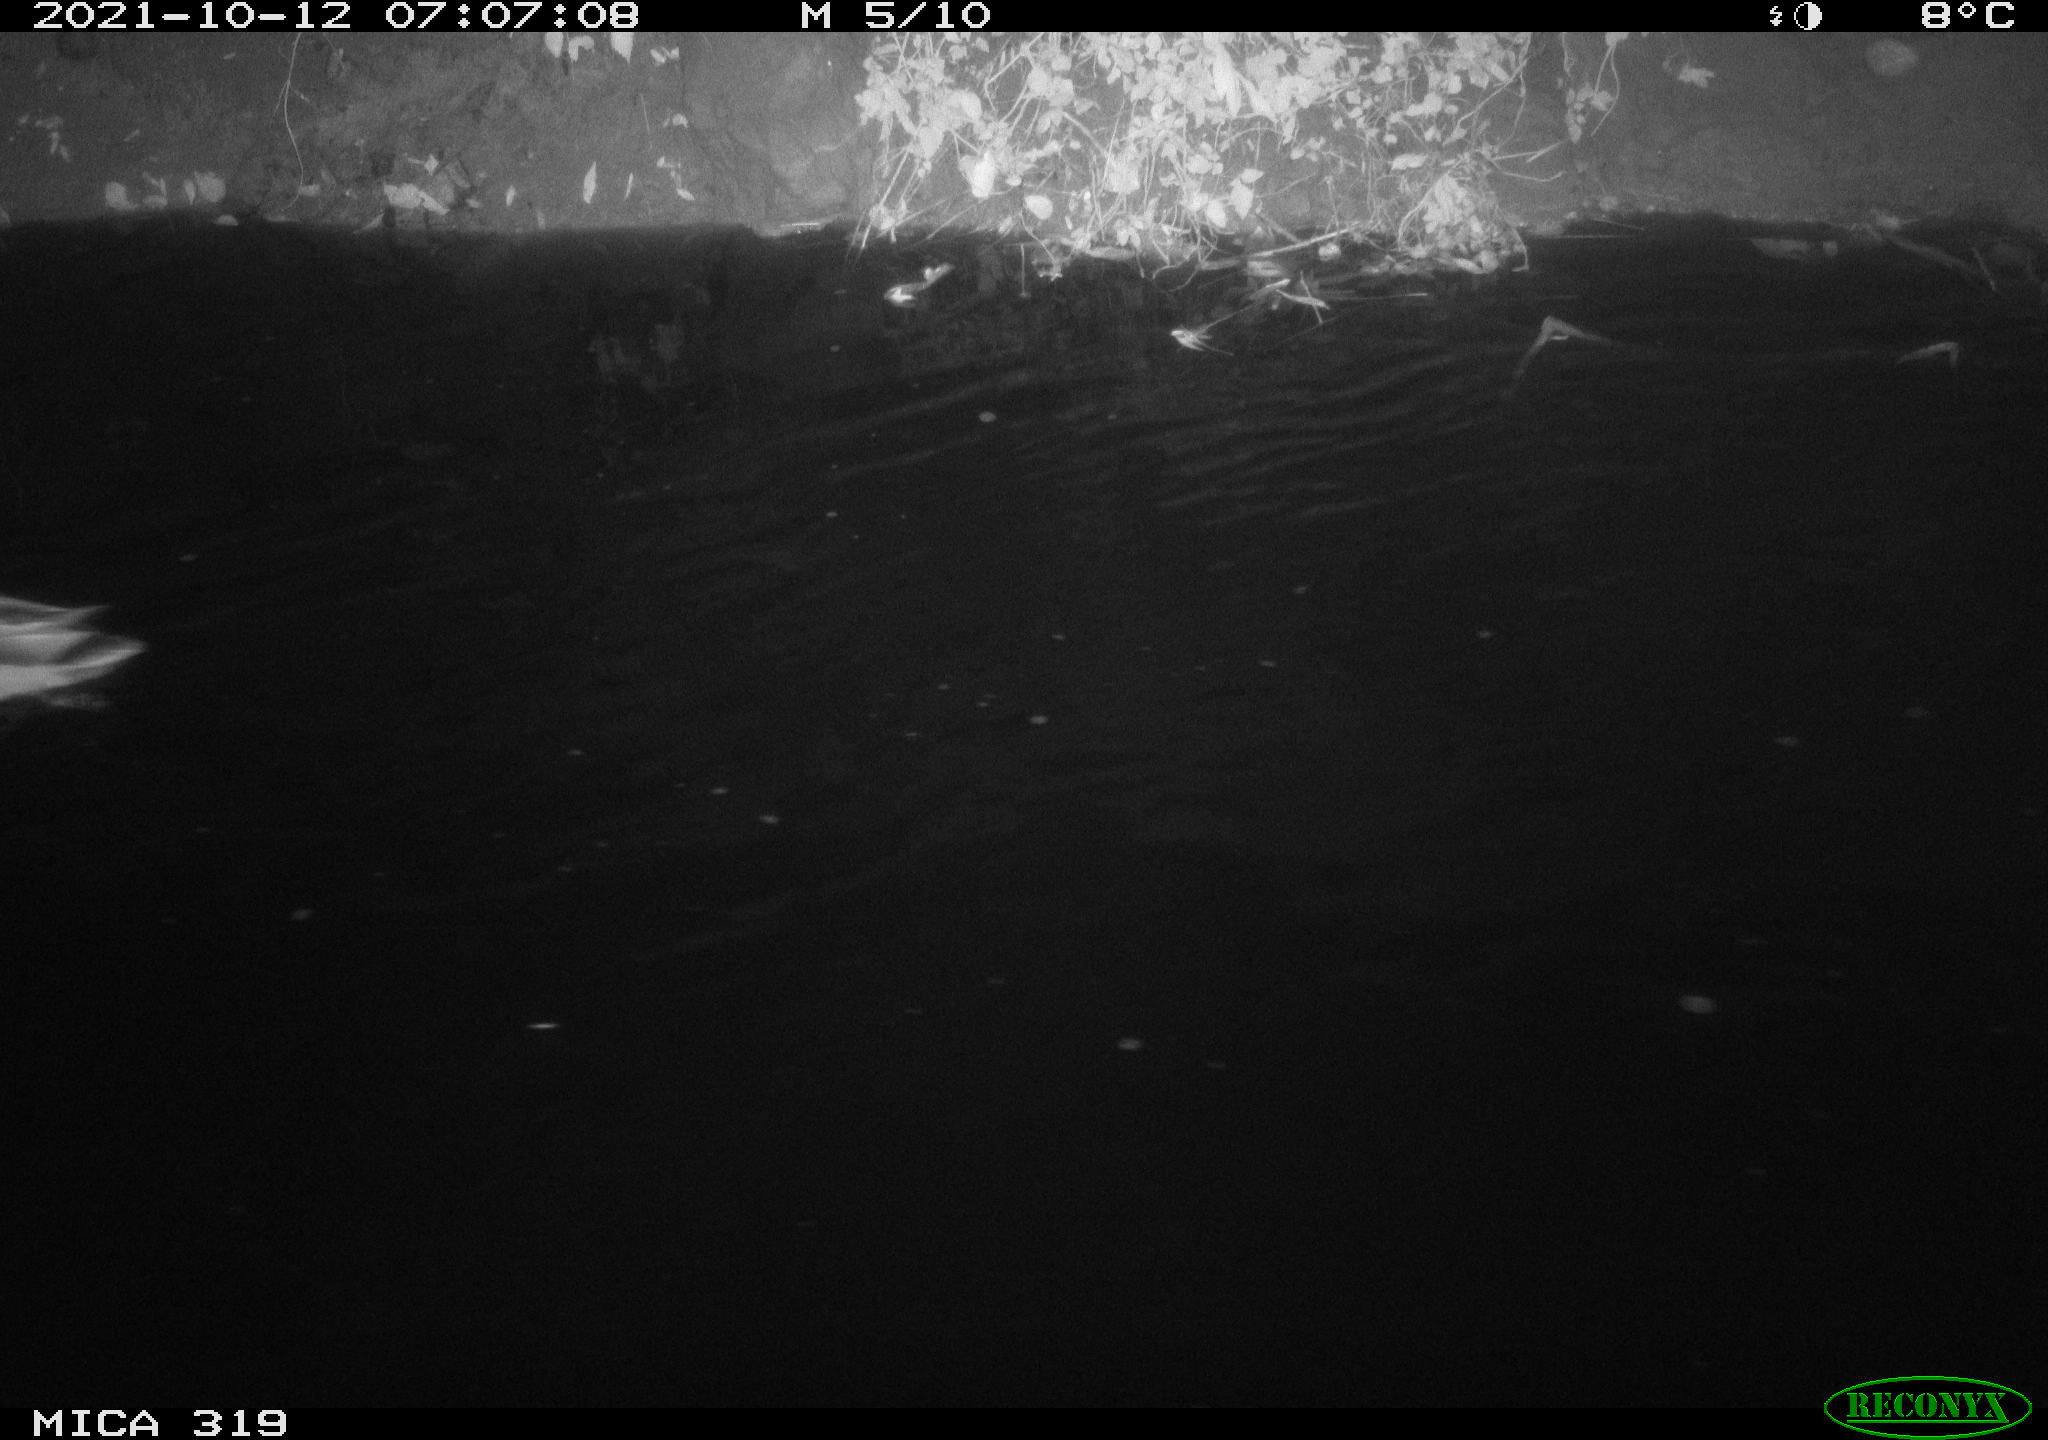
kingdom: Animalia
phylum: Chordata
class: Aves
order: Anseriformes
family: Anatidae
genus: Anas
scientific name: Anas platyrhynchos
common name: Mallard
